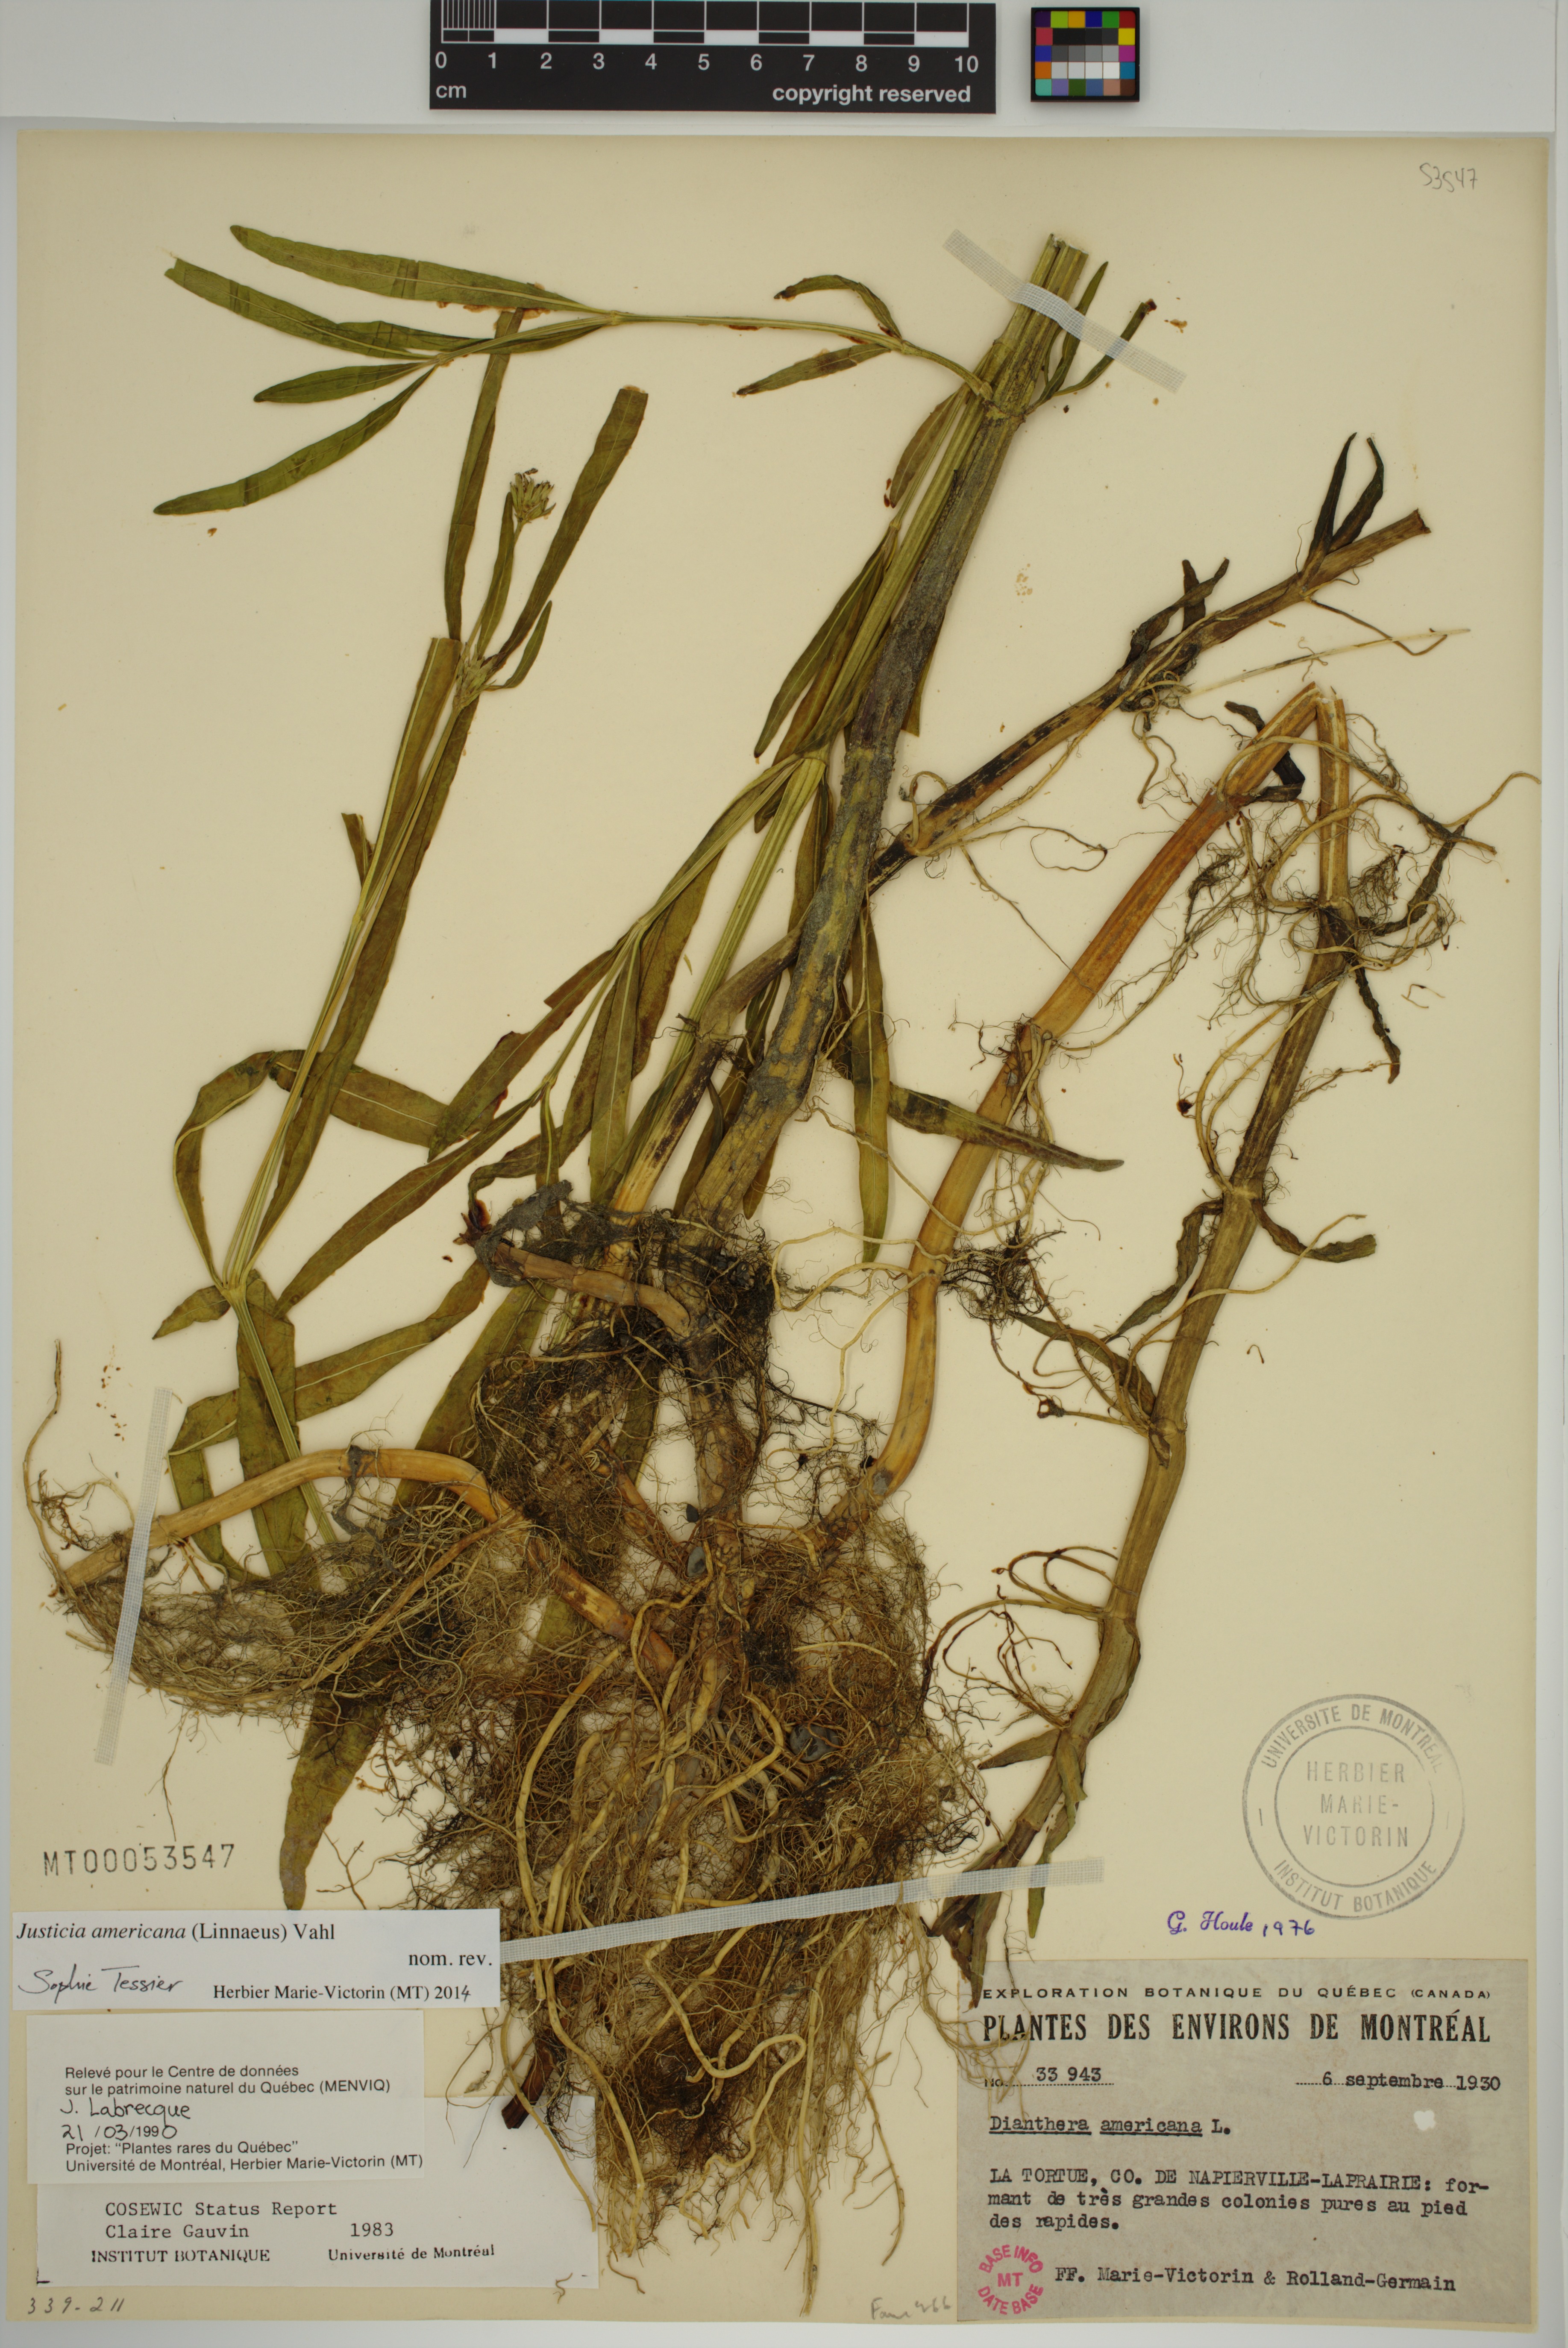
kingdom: Plantae
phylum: Tracheophyta
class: Magnoliopsida
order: Lamiales
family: Acanthaceae
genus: Dianthera
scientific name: Dianthera americana
